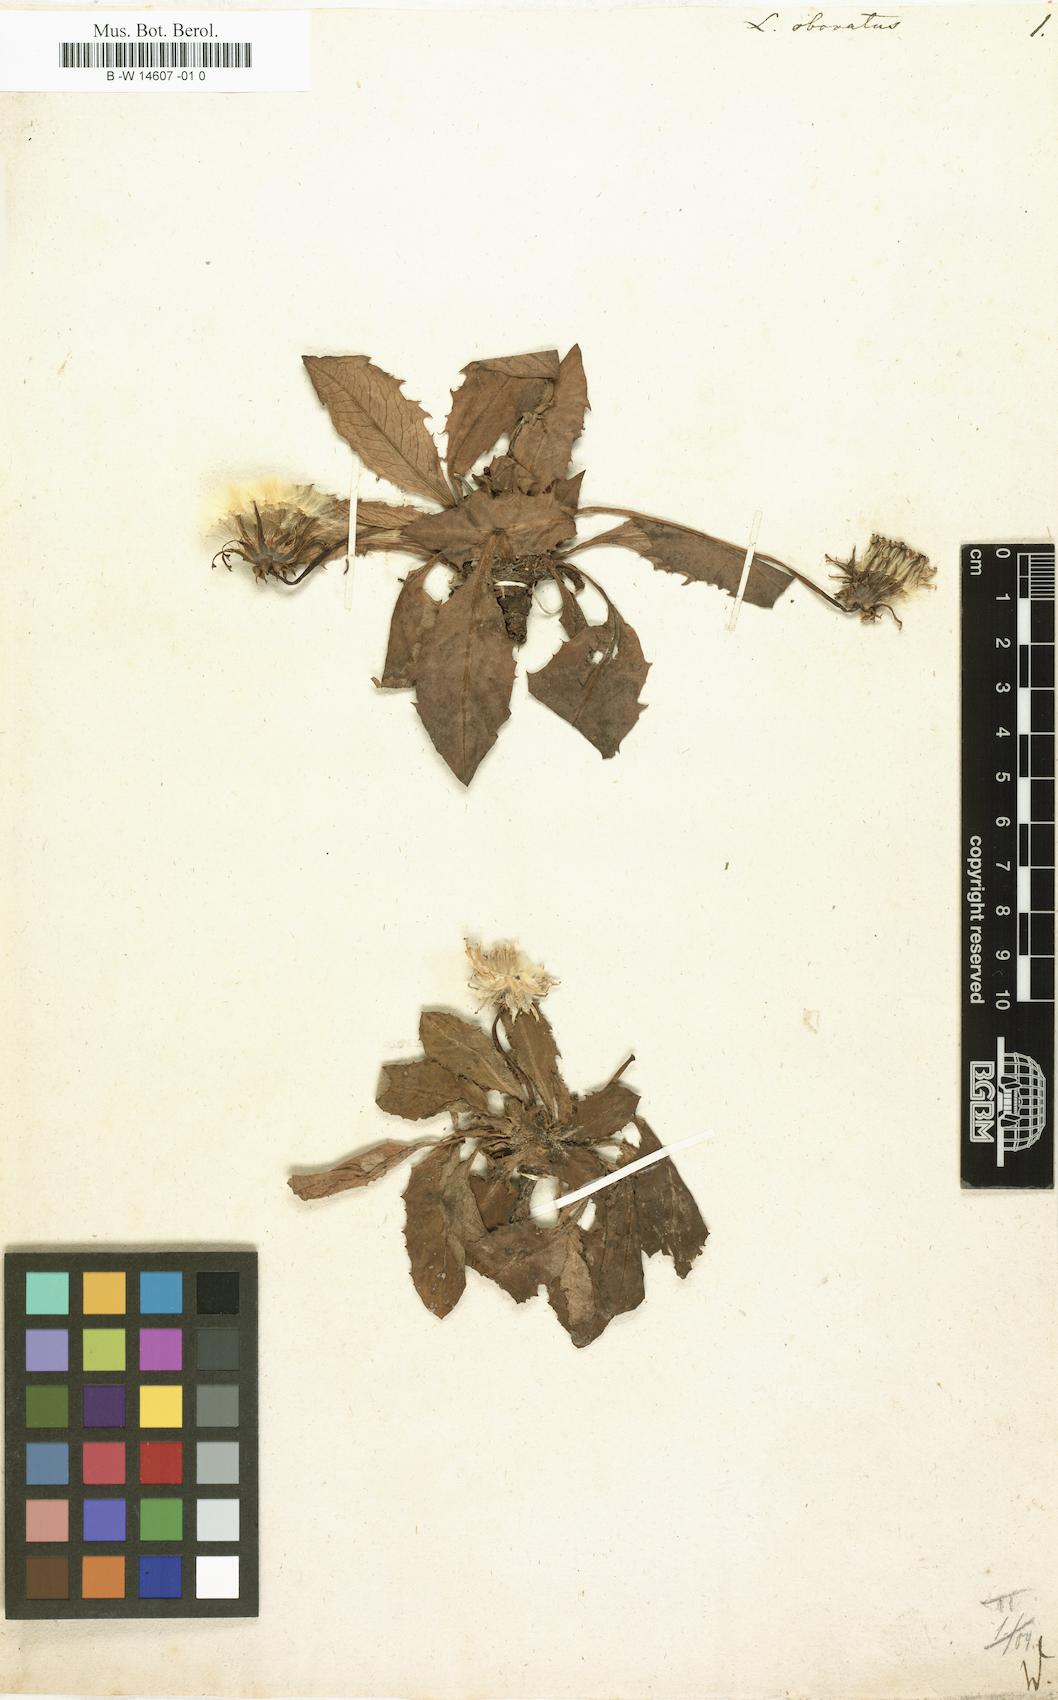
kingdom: Plantae
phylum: Tracheophyta
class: Magnoliopsida
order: Asterales
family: Asteraceae
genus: Taraxacum
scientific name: Taraxacum obovatum
